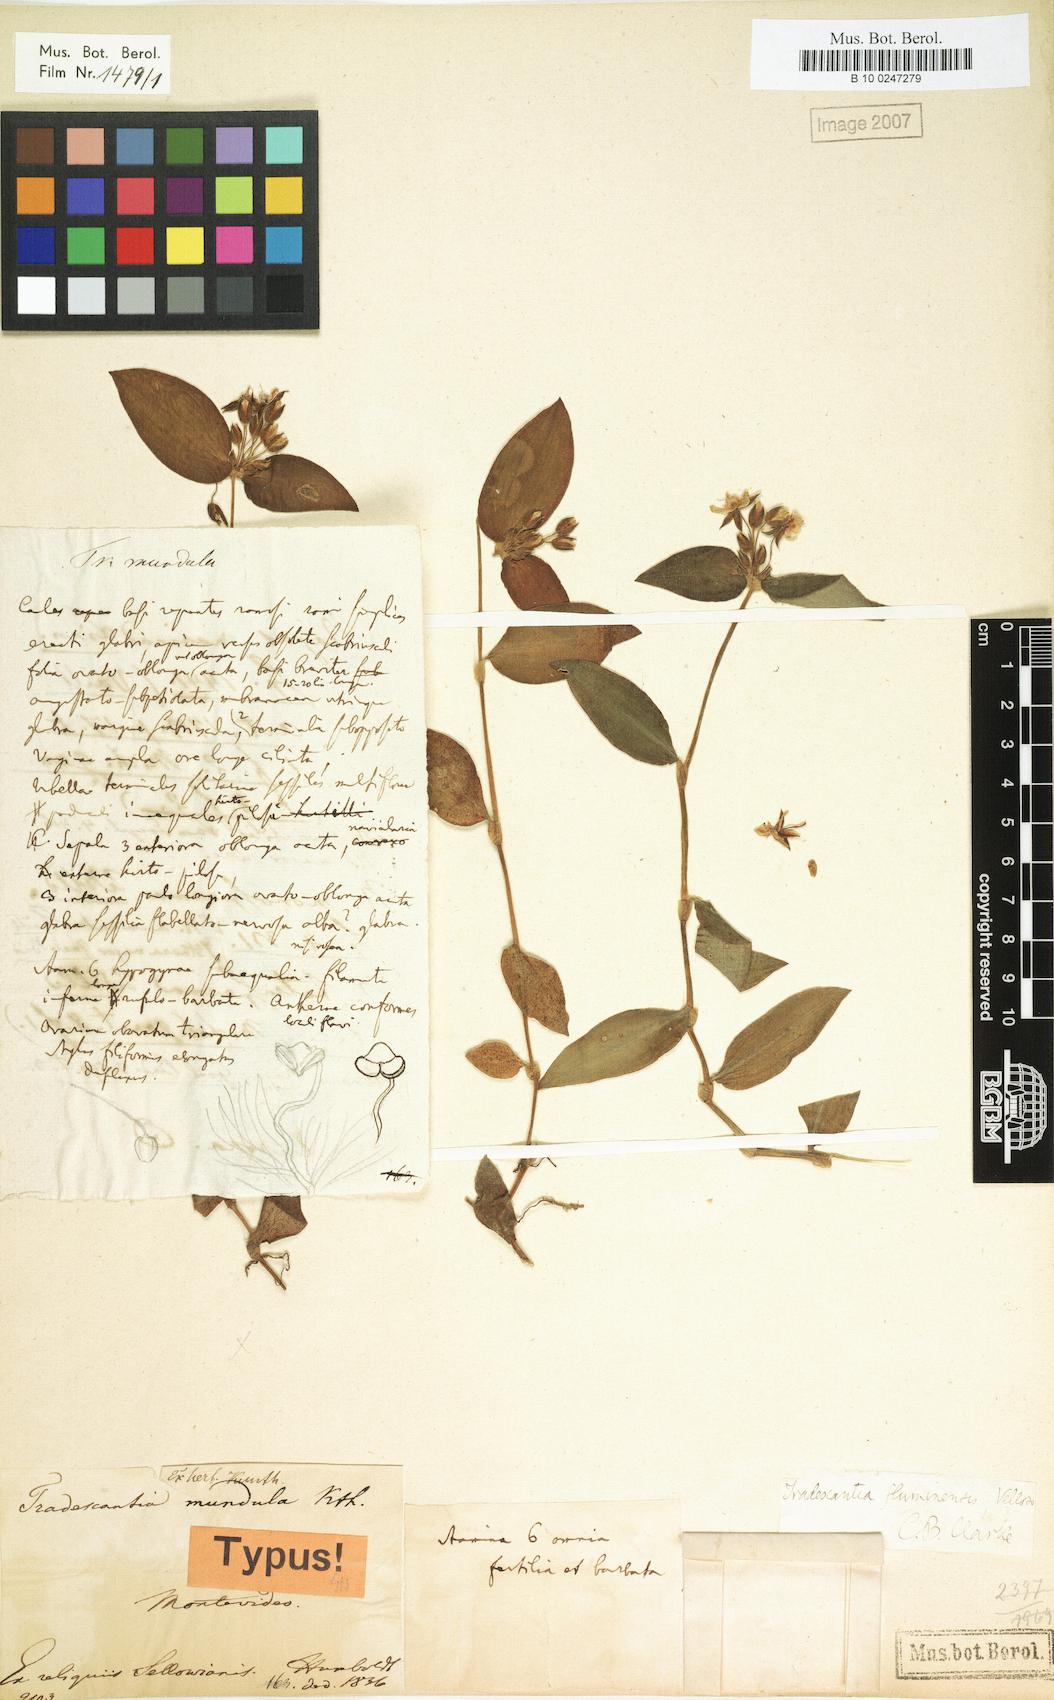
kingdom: Plantae
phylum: Tracheophyta
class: Liliopsida
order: Commelinales
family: Commelinaceae
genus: Tradescantia
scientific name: Tradescantia mundula
